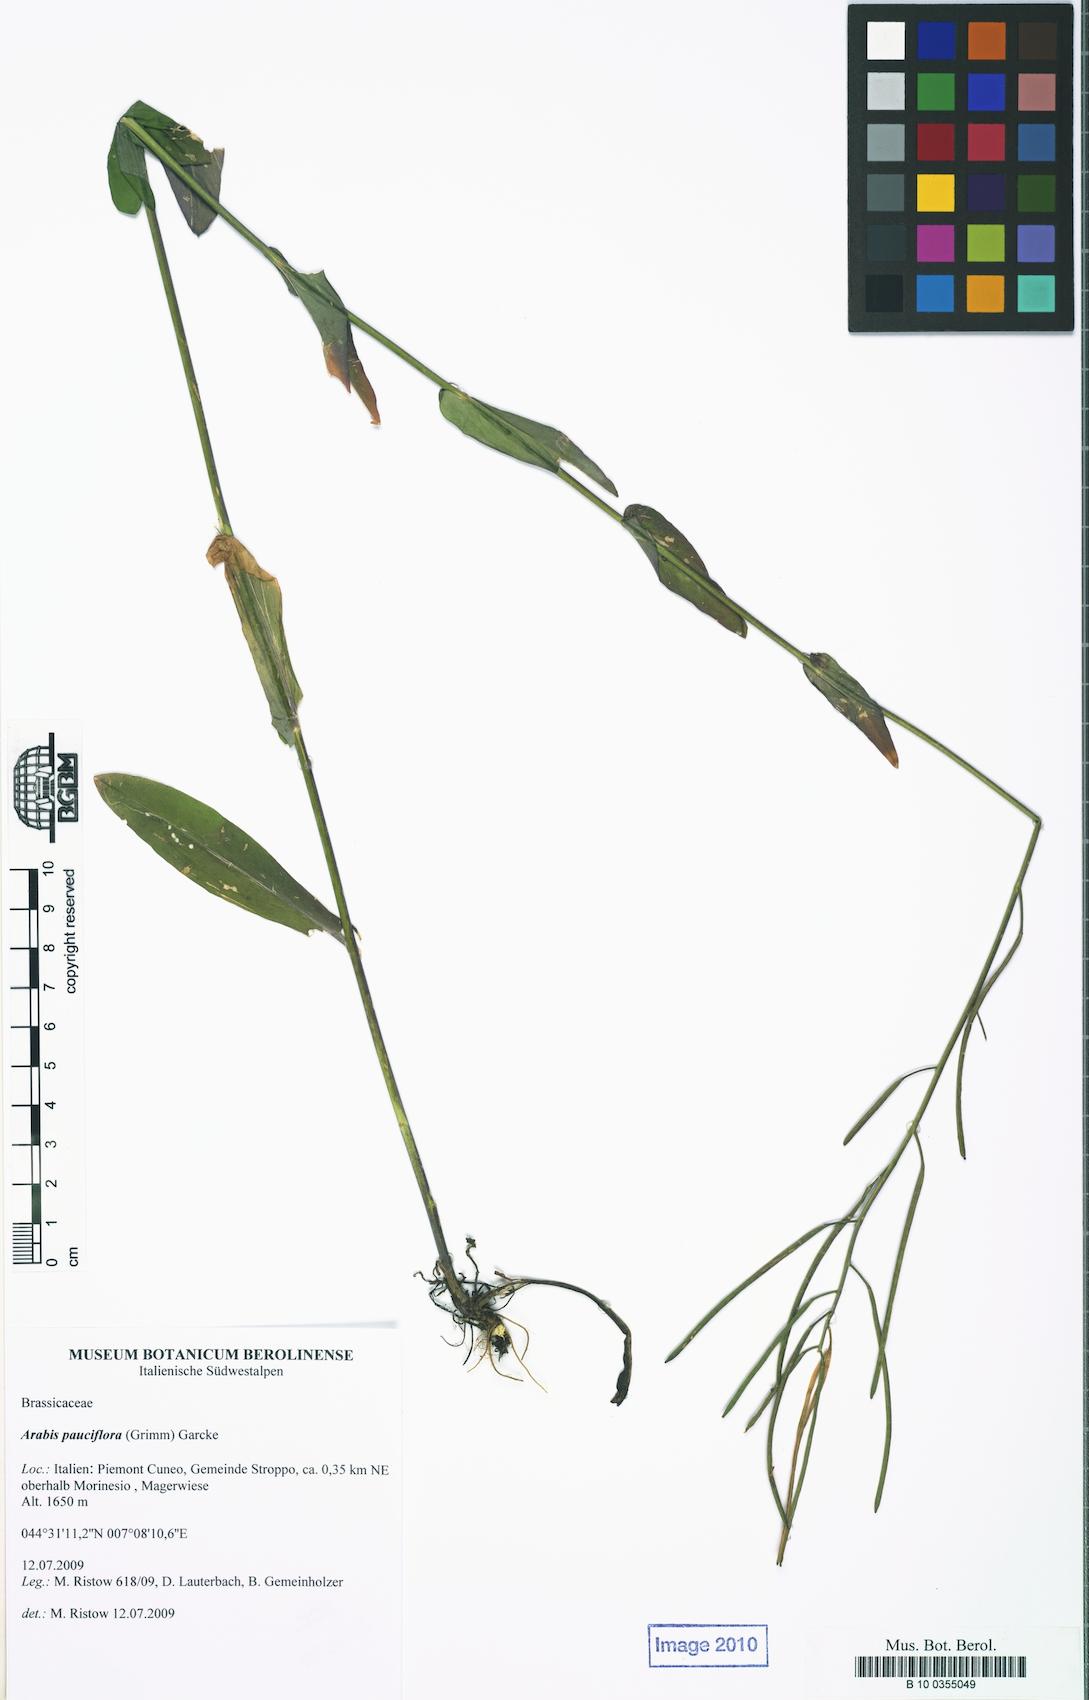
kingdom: Plantae
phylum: Tracheophyta
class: Magnoliopsida
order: Brassicales
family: Brassicaceae
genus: Fourraea
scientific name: Fourraea alpina
